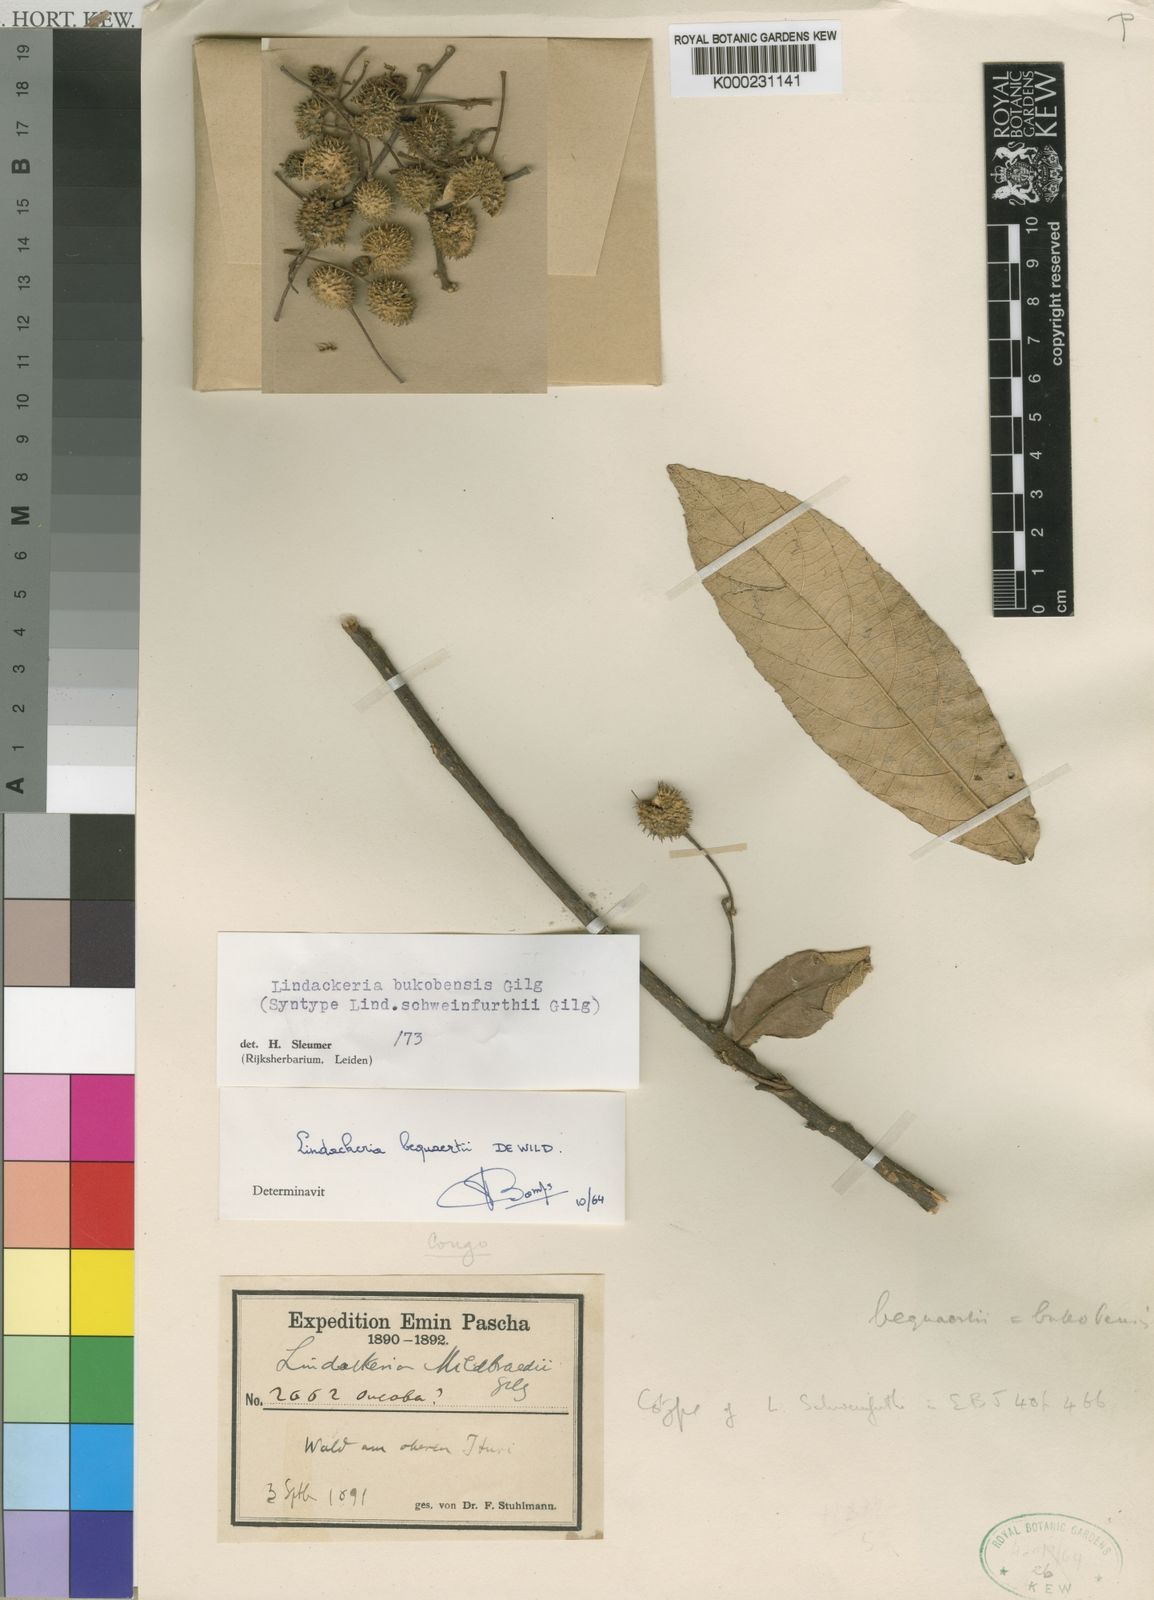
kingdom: Plantae
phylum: Tracheophyta
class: Magnoliopsida
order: Malpighiales
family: Achariaceae
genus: Lindackeria
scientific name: Lindackeria bukobensis
